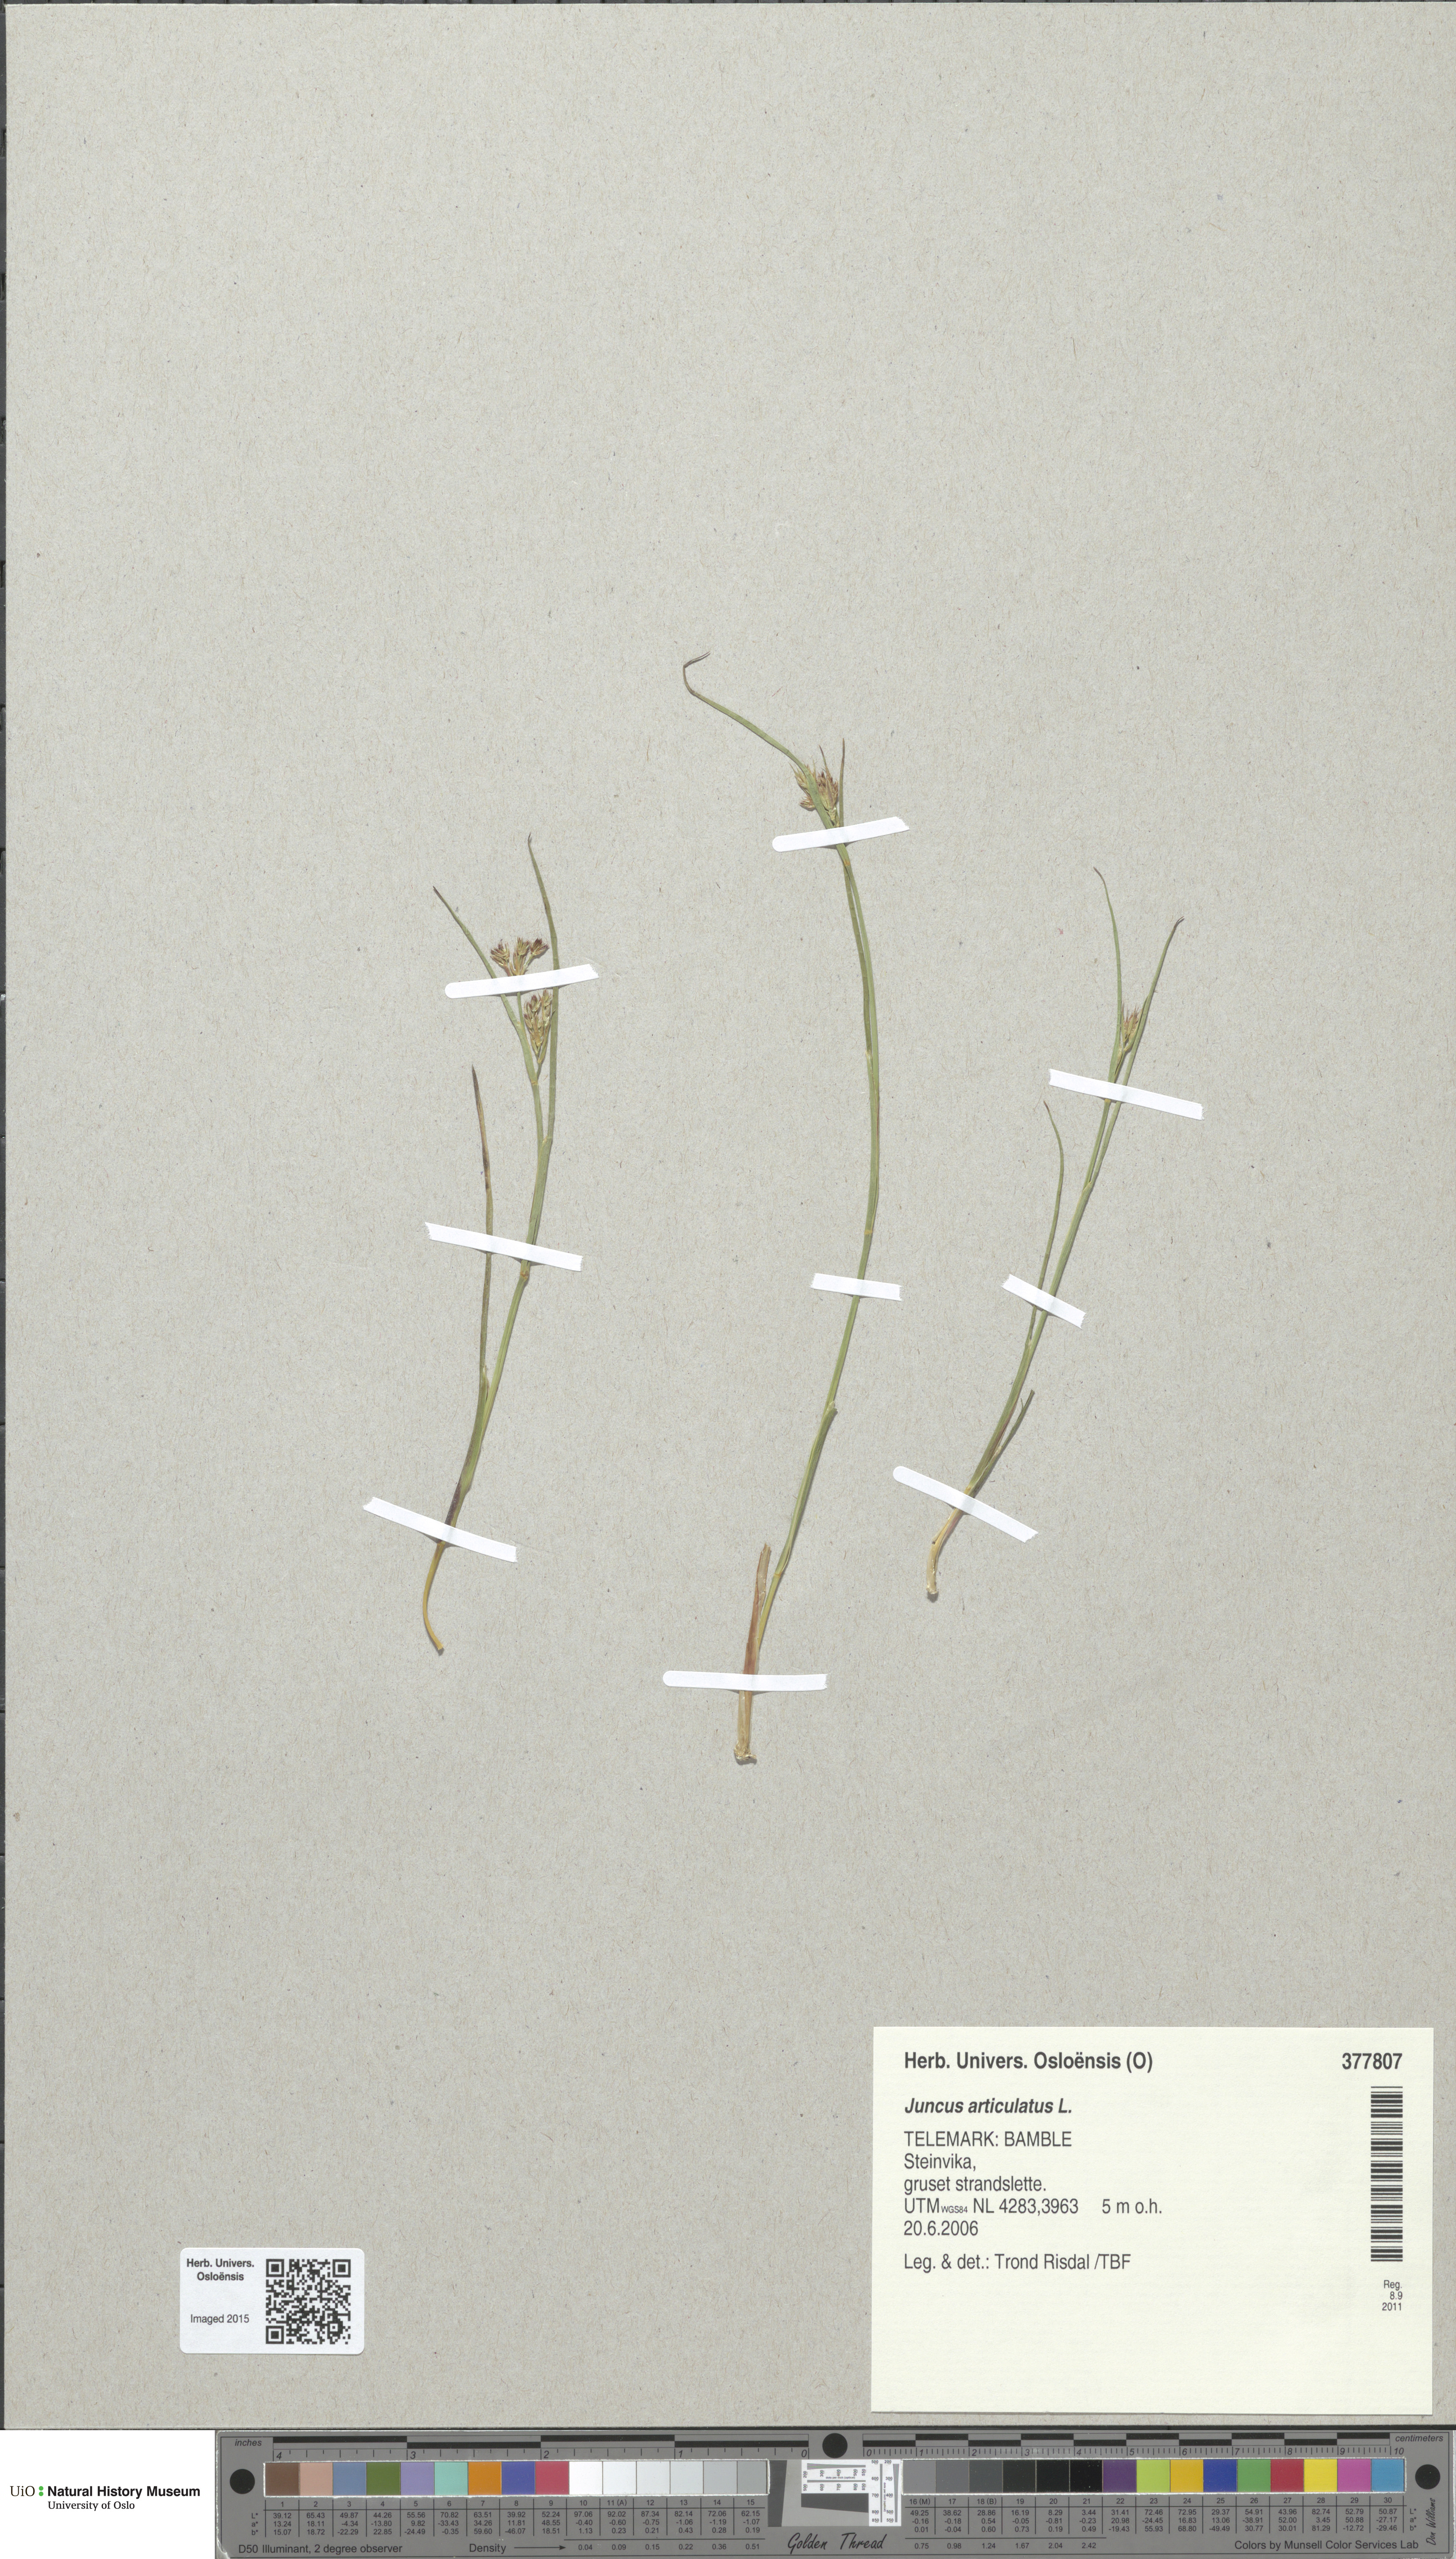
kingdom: Plantae
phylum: Tracheophyta
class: Liliopsida
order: Poales
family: Juncaceae
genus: Juncus
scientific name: Juncus articulatus
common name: Jointed rush
